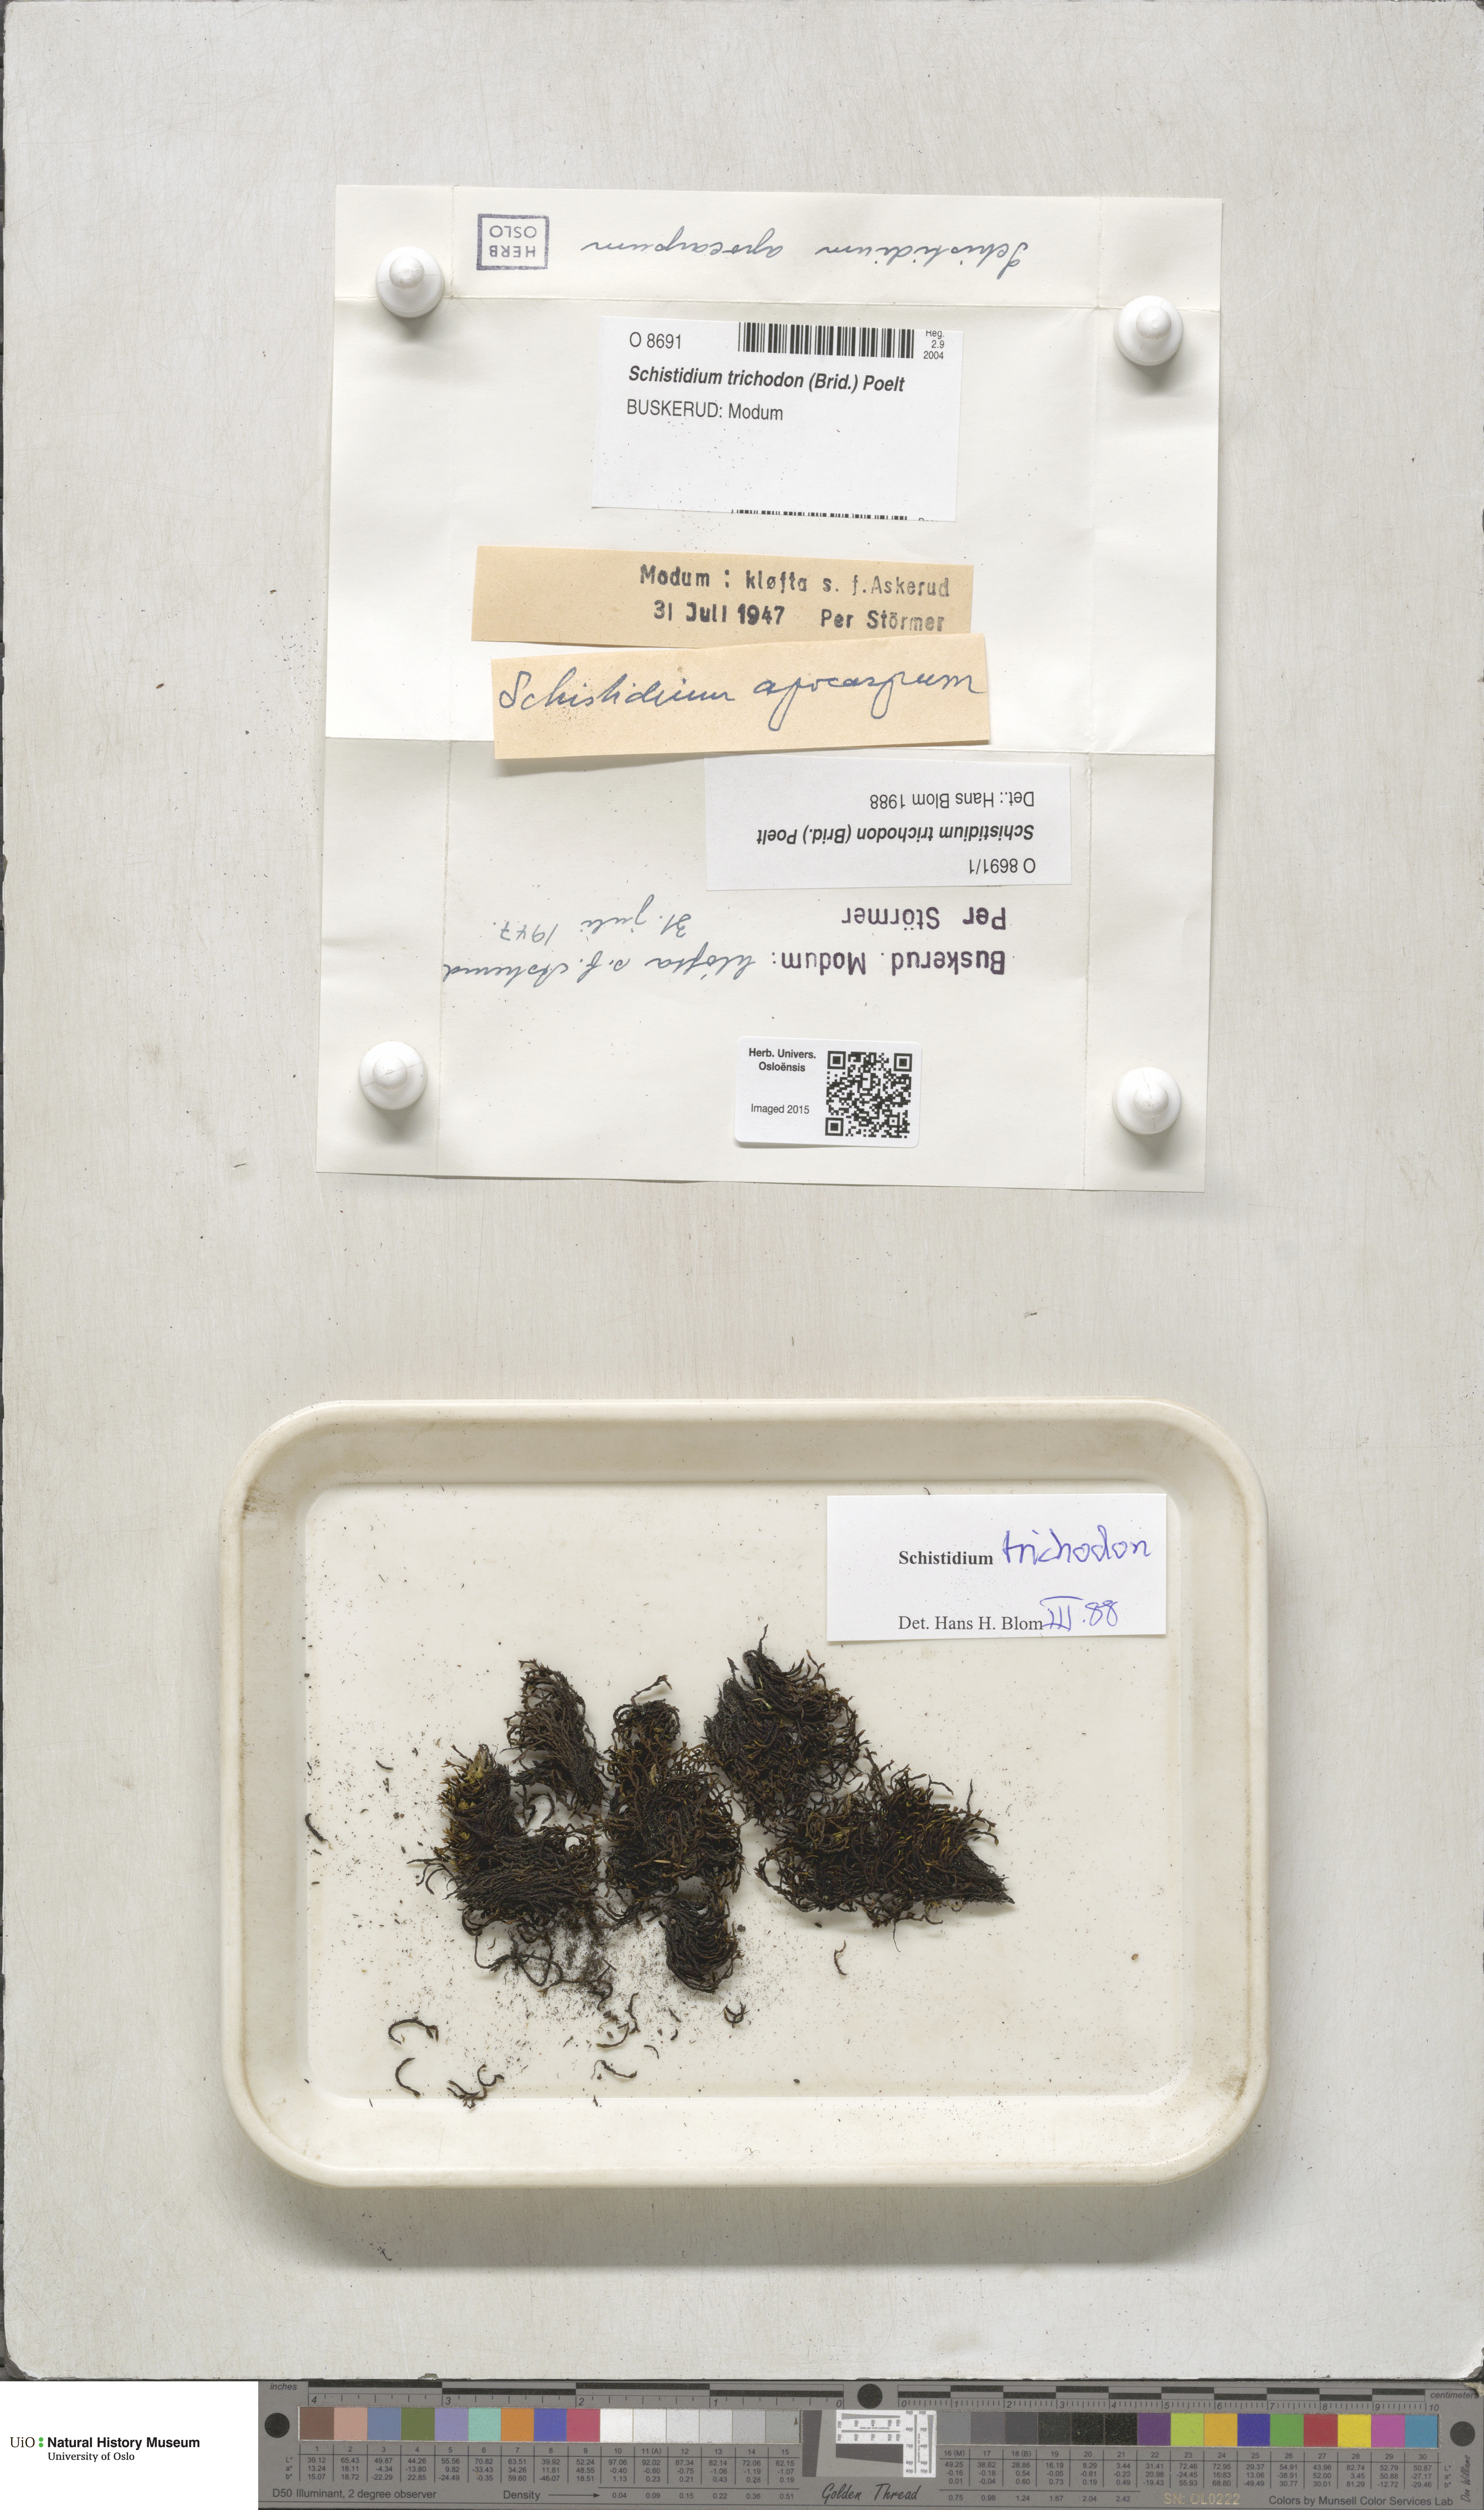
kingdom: Plantae
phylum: Bryophyta
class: Bryopsida
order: Grimmiales
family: Grimmiaceae
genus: Schistidium
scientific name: Schistidium trichodon
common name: Black bloom moss
